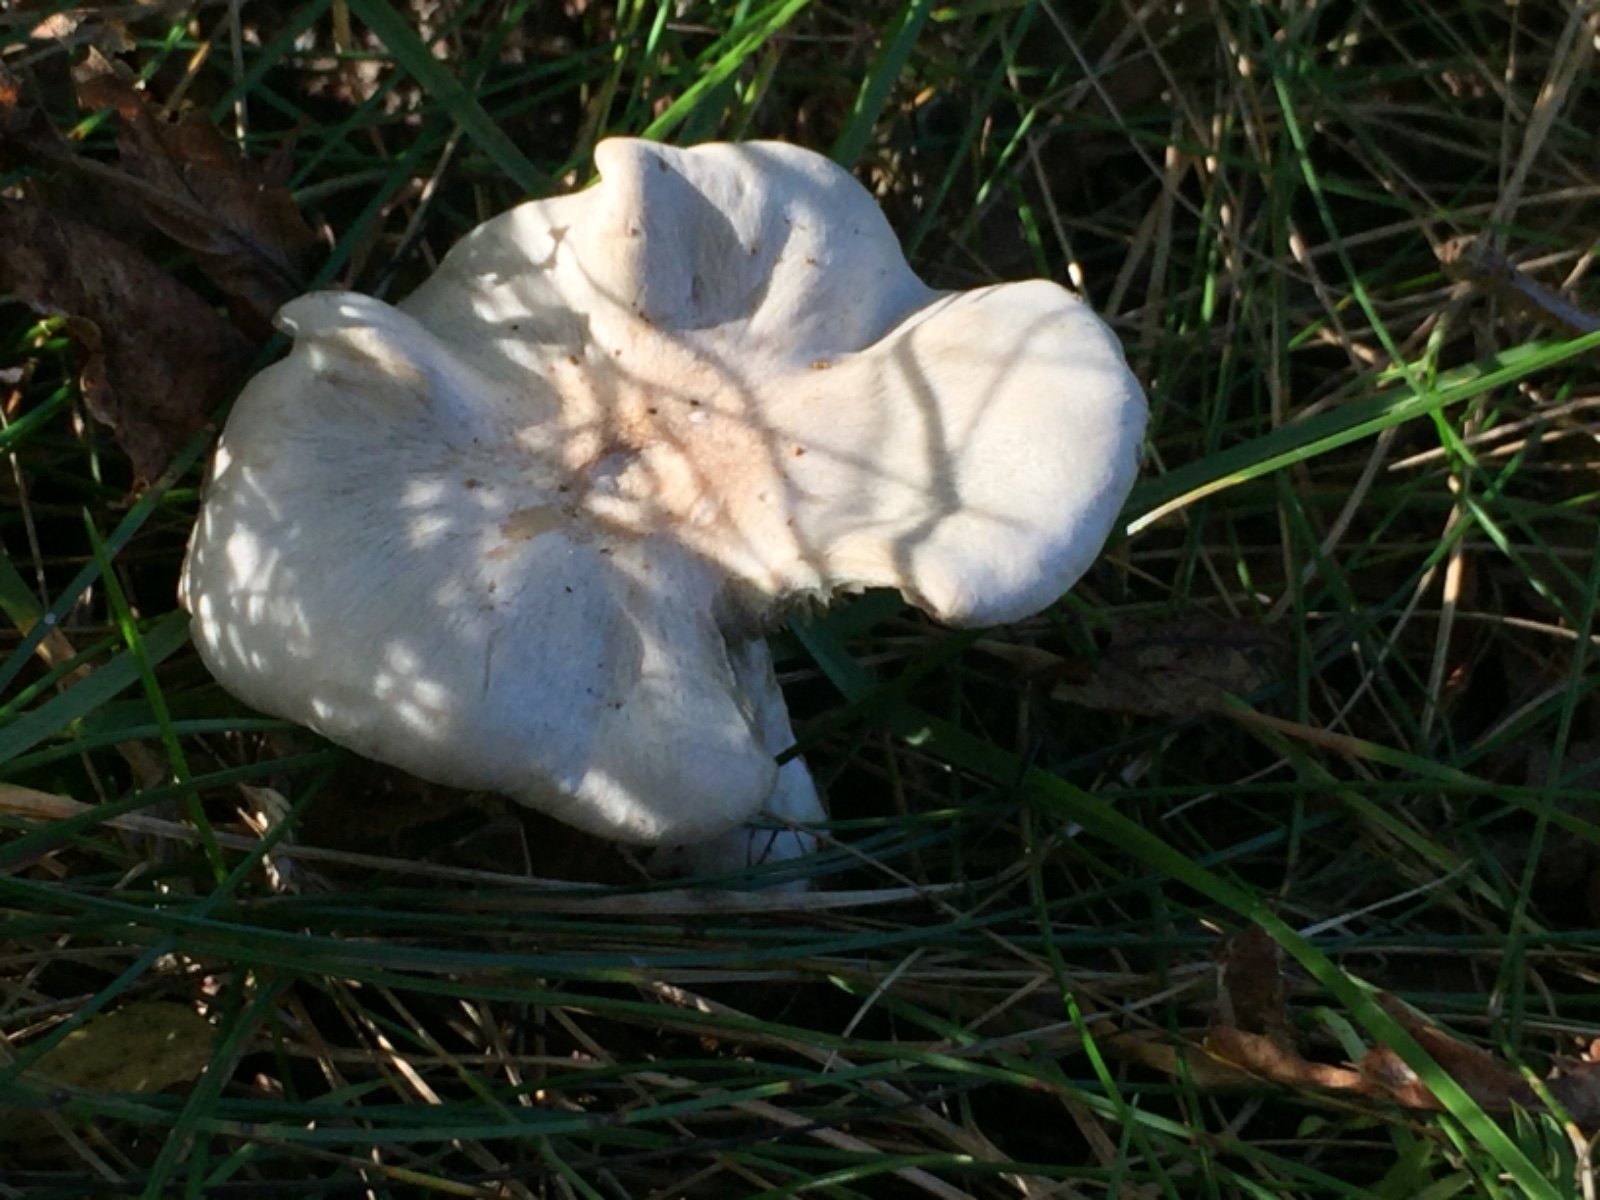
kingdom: Fungi
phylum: Basidiomycota
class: Agaricomycetes
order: Agaricales
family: Tricholomataceae
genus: Clitocybe
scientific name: Clitocybe odora
